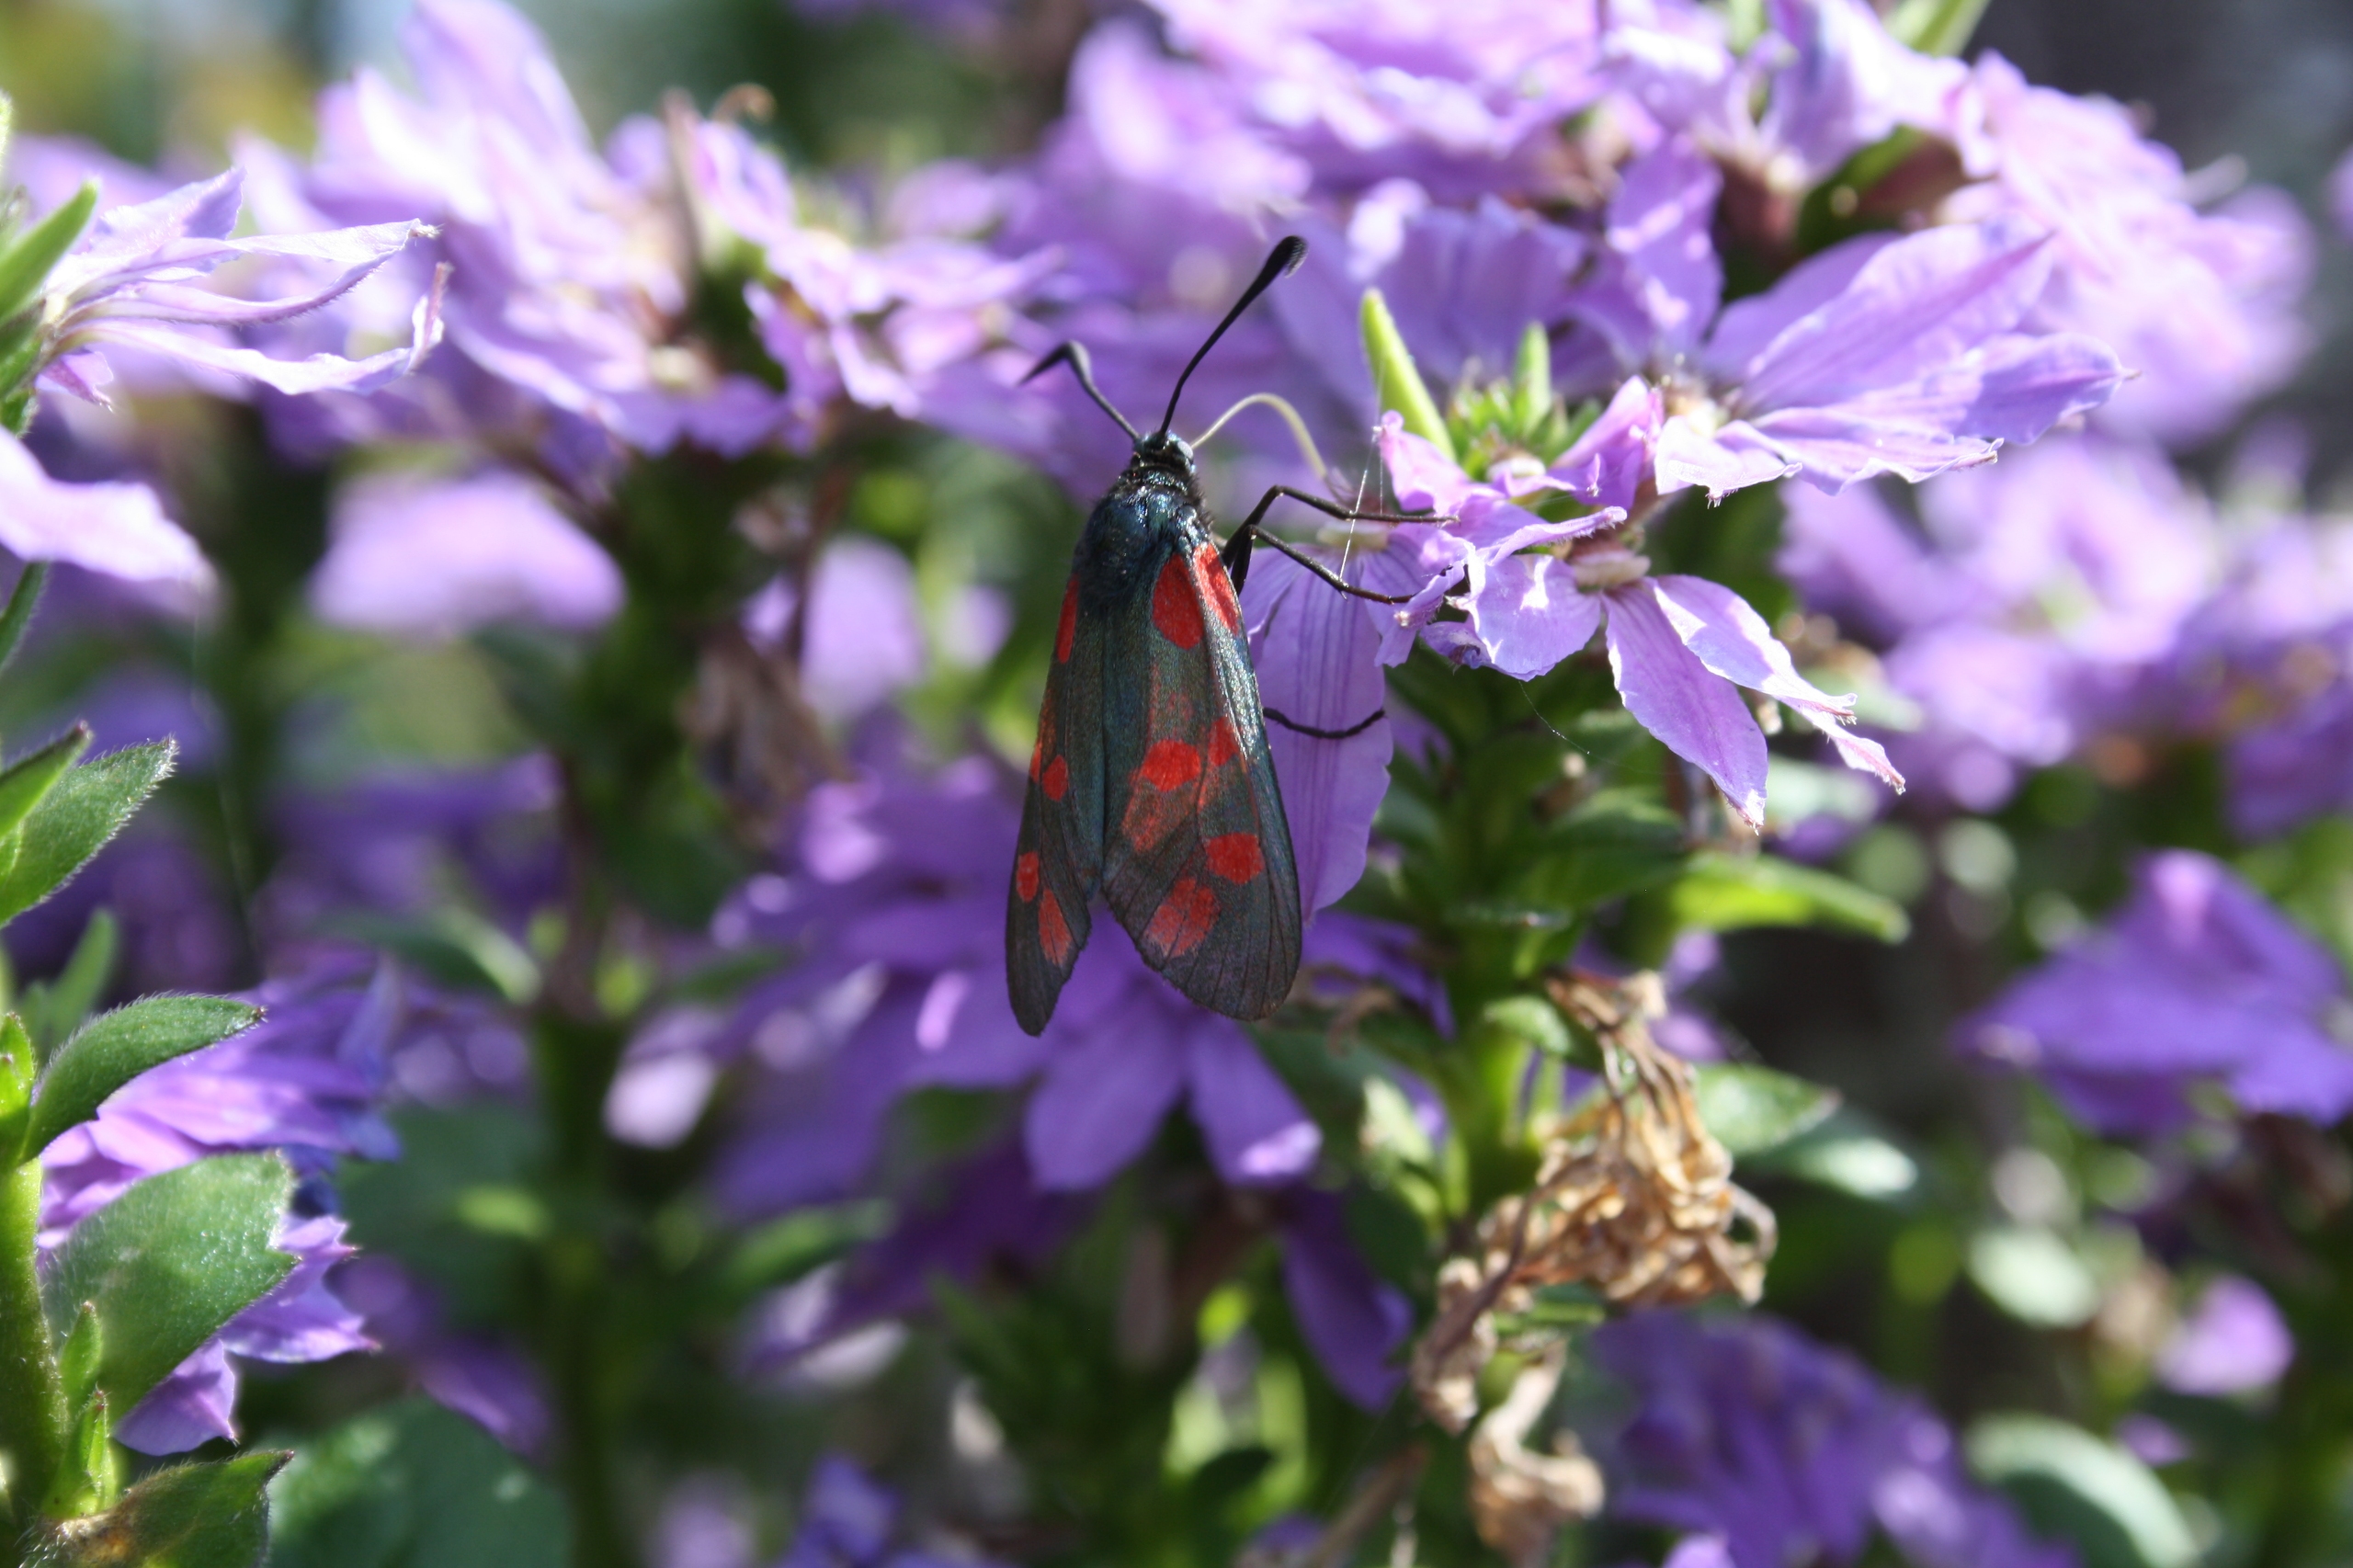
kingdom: Animalia
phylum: Arthropoda
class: Insecta
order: Lepidoptera
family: Zygaenidae
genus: Zygaena
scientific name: Zygaena filipendulae
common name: Seksplettet køllesværmer
